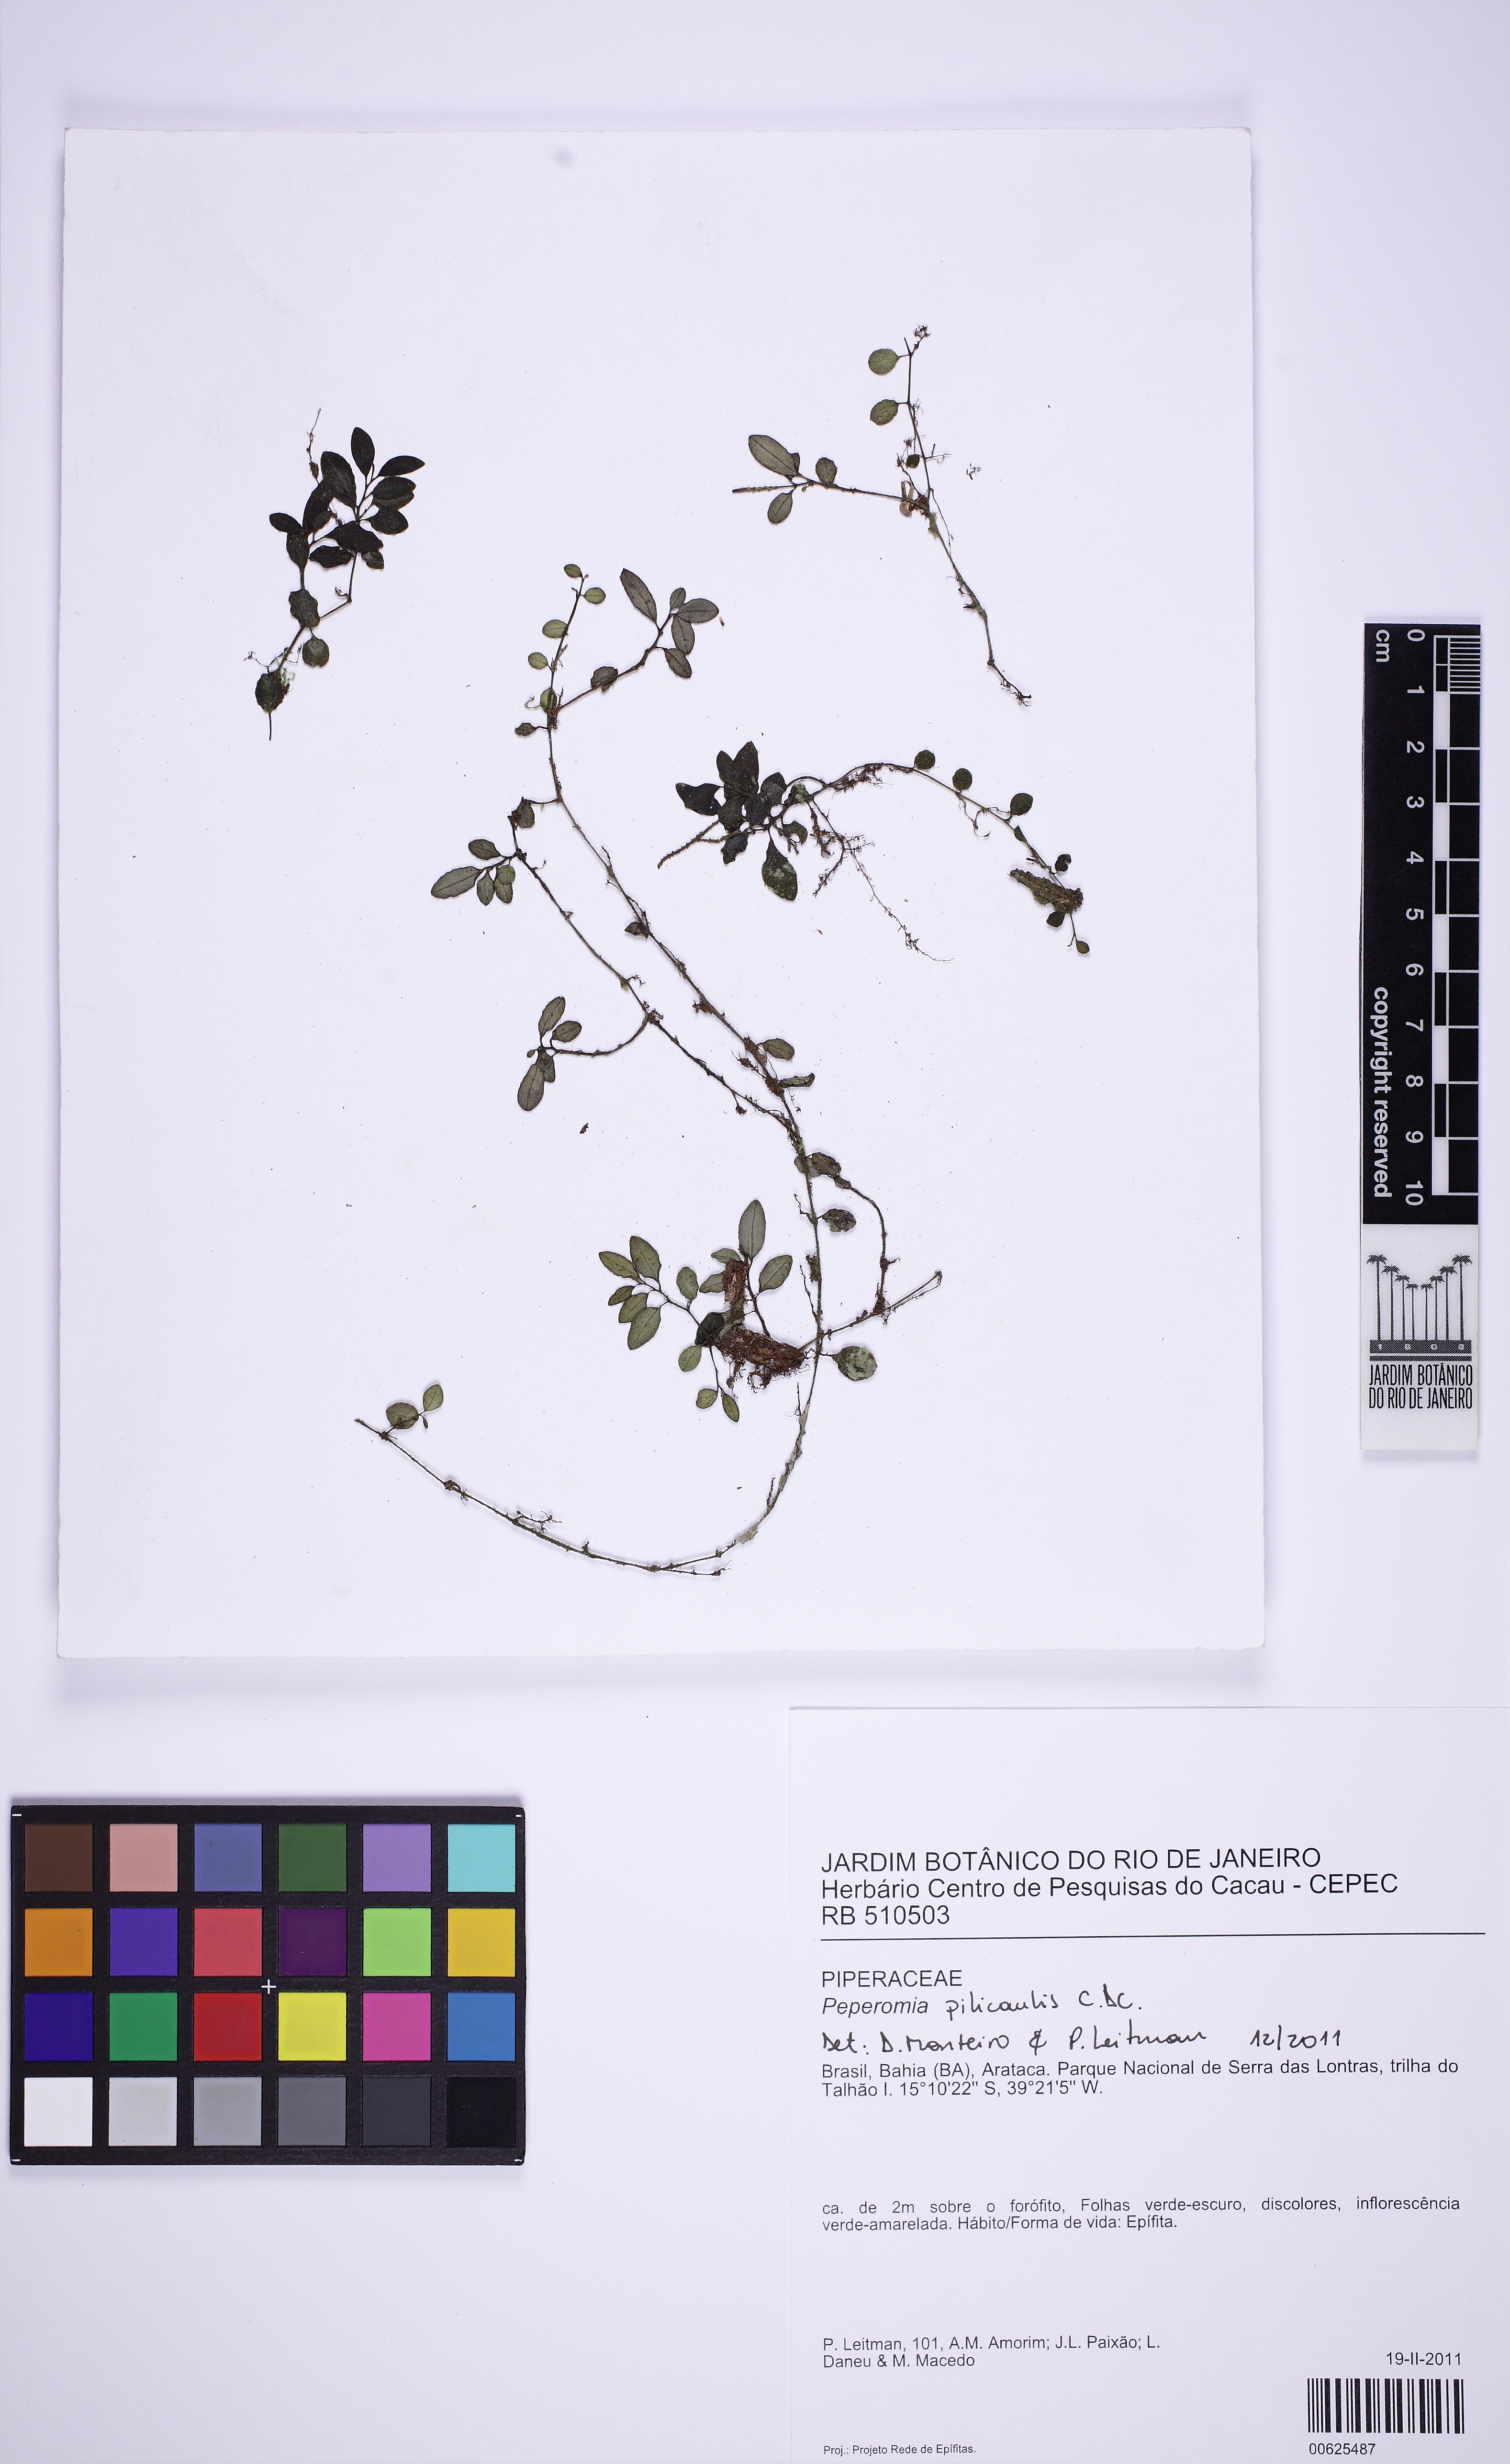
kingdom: Plantae
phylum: Tracheophyta
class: Magnoliopsida
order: Piperales
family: Piperaceae
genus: Peperomia
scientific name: Peperomia pilicaulis
